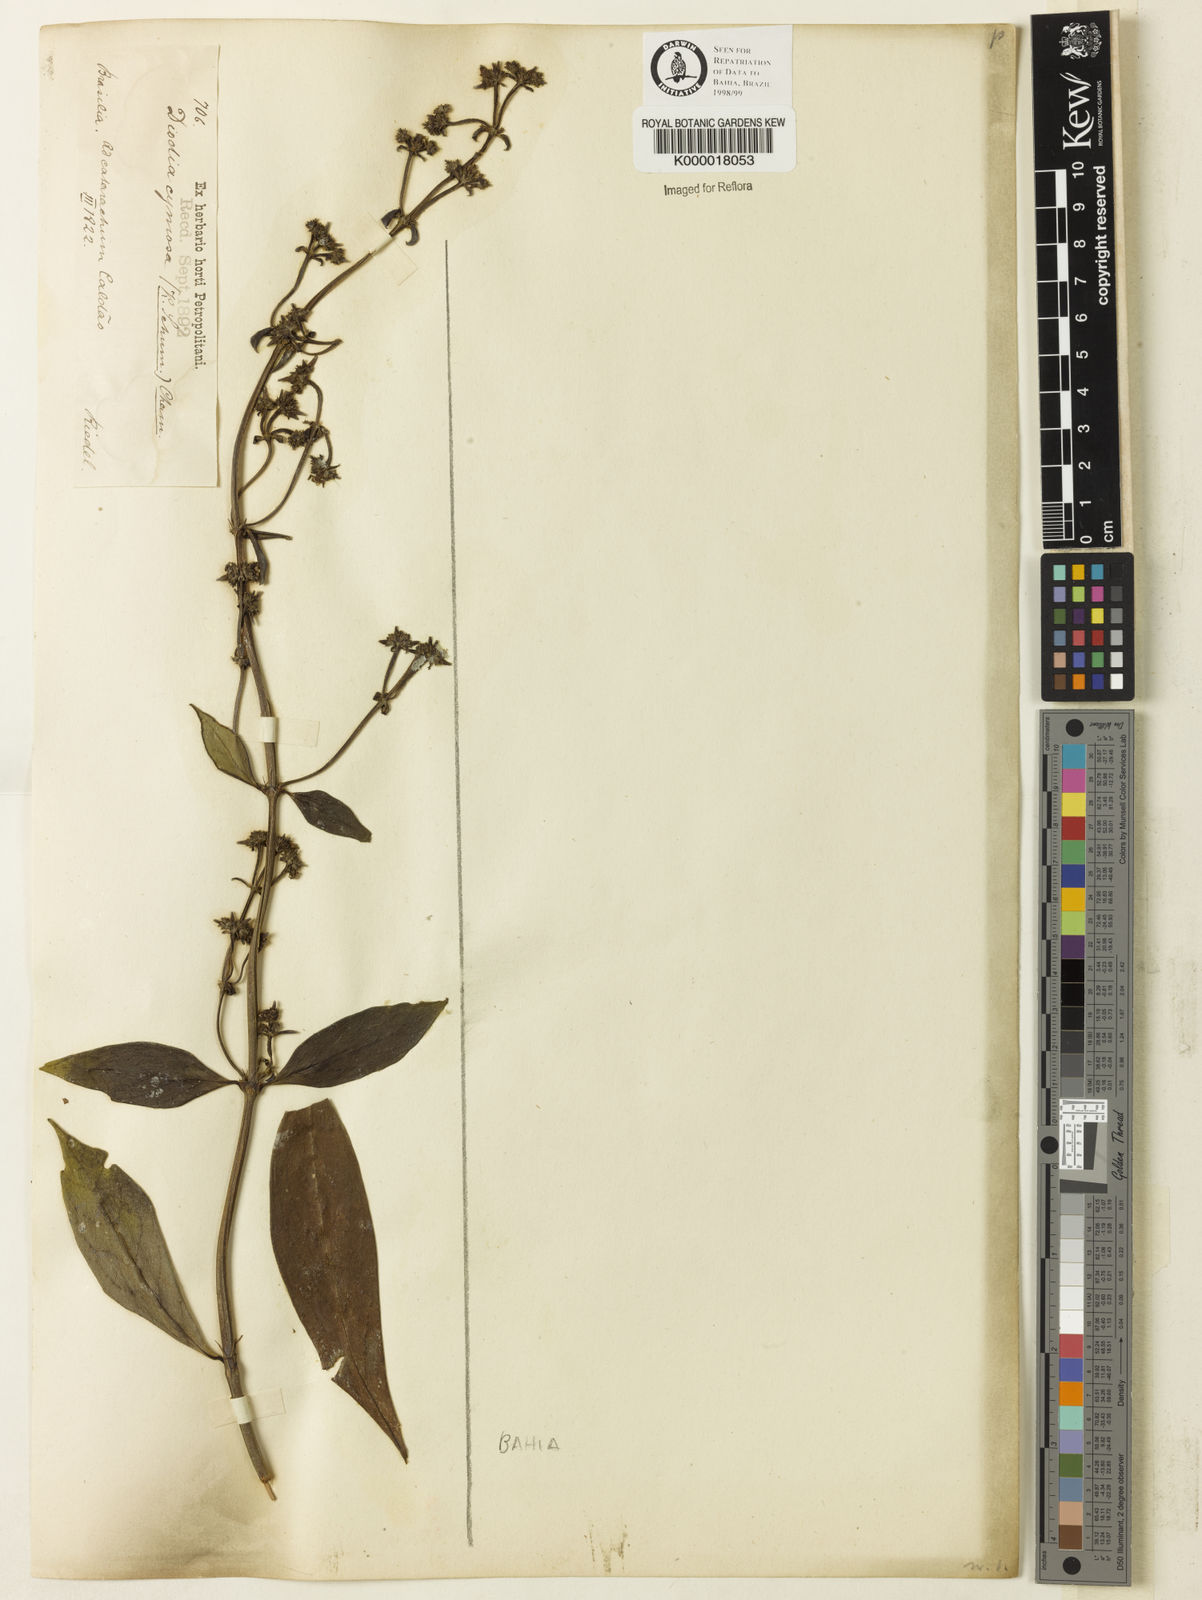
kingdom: Plantae
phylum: Tracheophyta
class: Magnoliopsida
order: Gentianales
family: Rubiaceae
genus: Galianthe
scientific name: Galianthe cymosa
